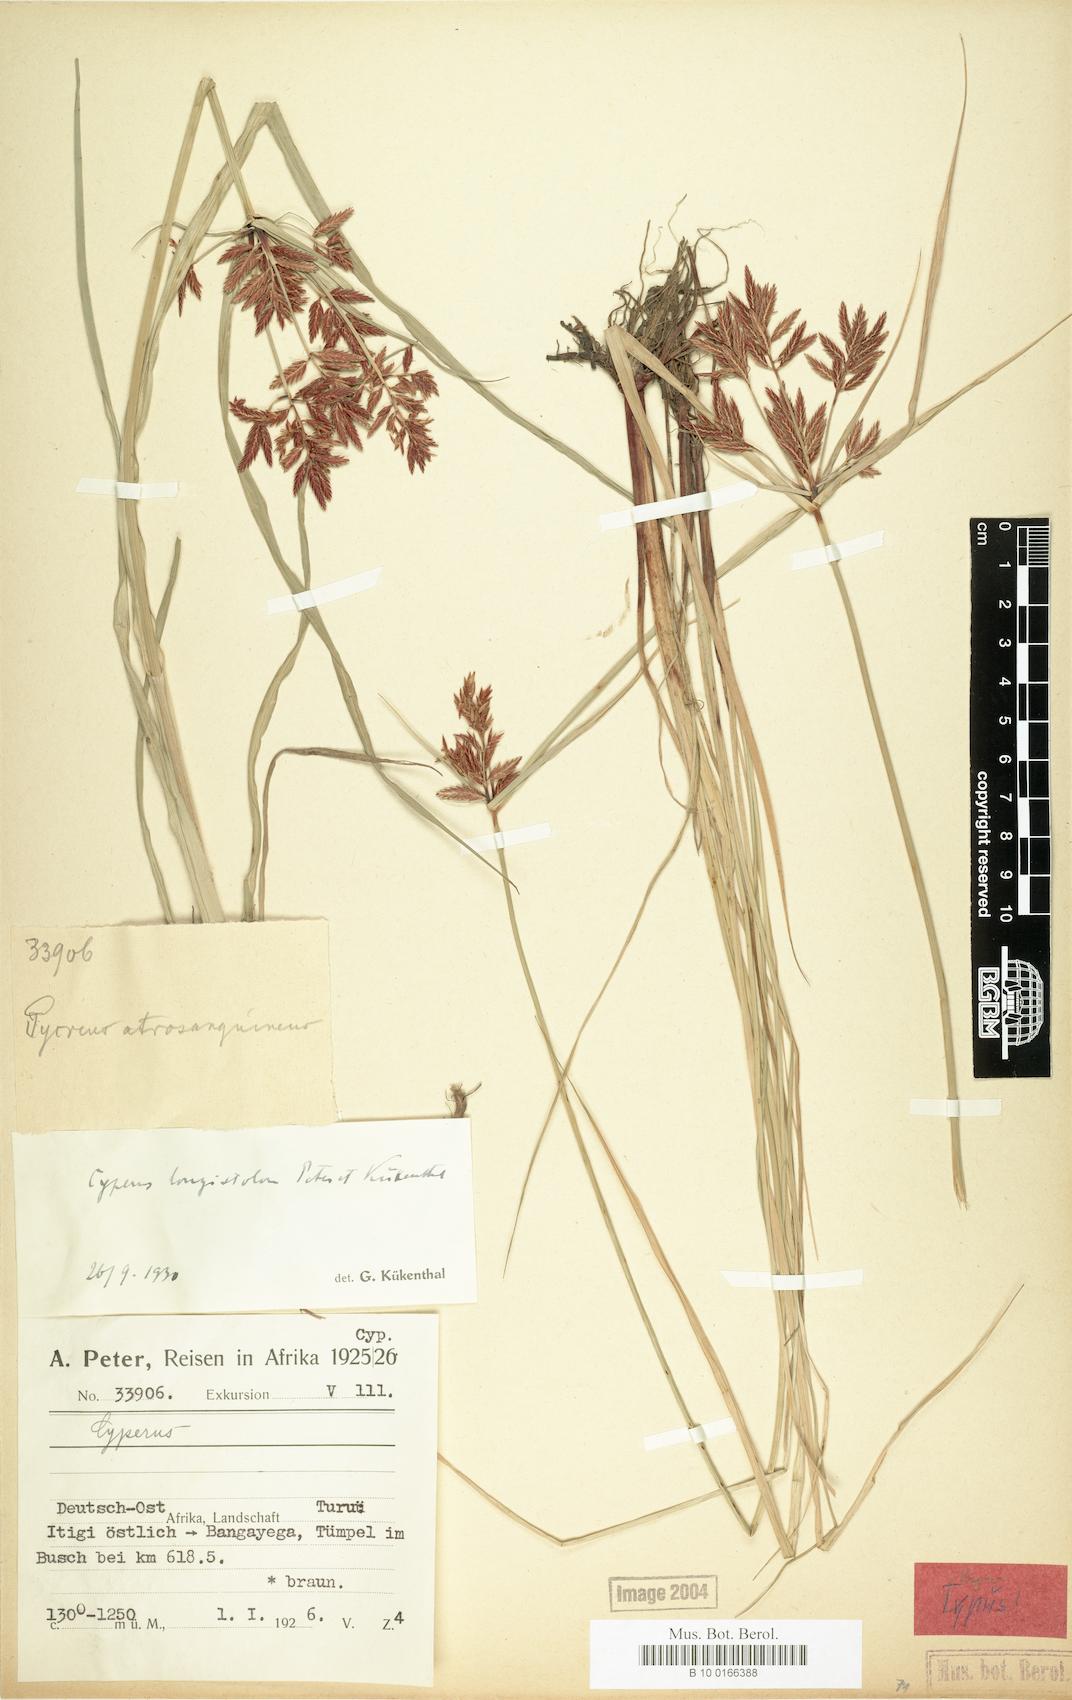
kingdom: Plantae
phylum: Tracheophyta
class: Liliopsida
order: Poales
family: Cyperaceae
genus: Cyperus
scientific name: Cyperus chrysanthus
